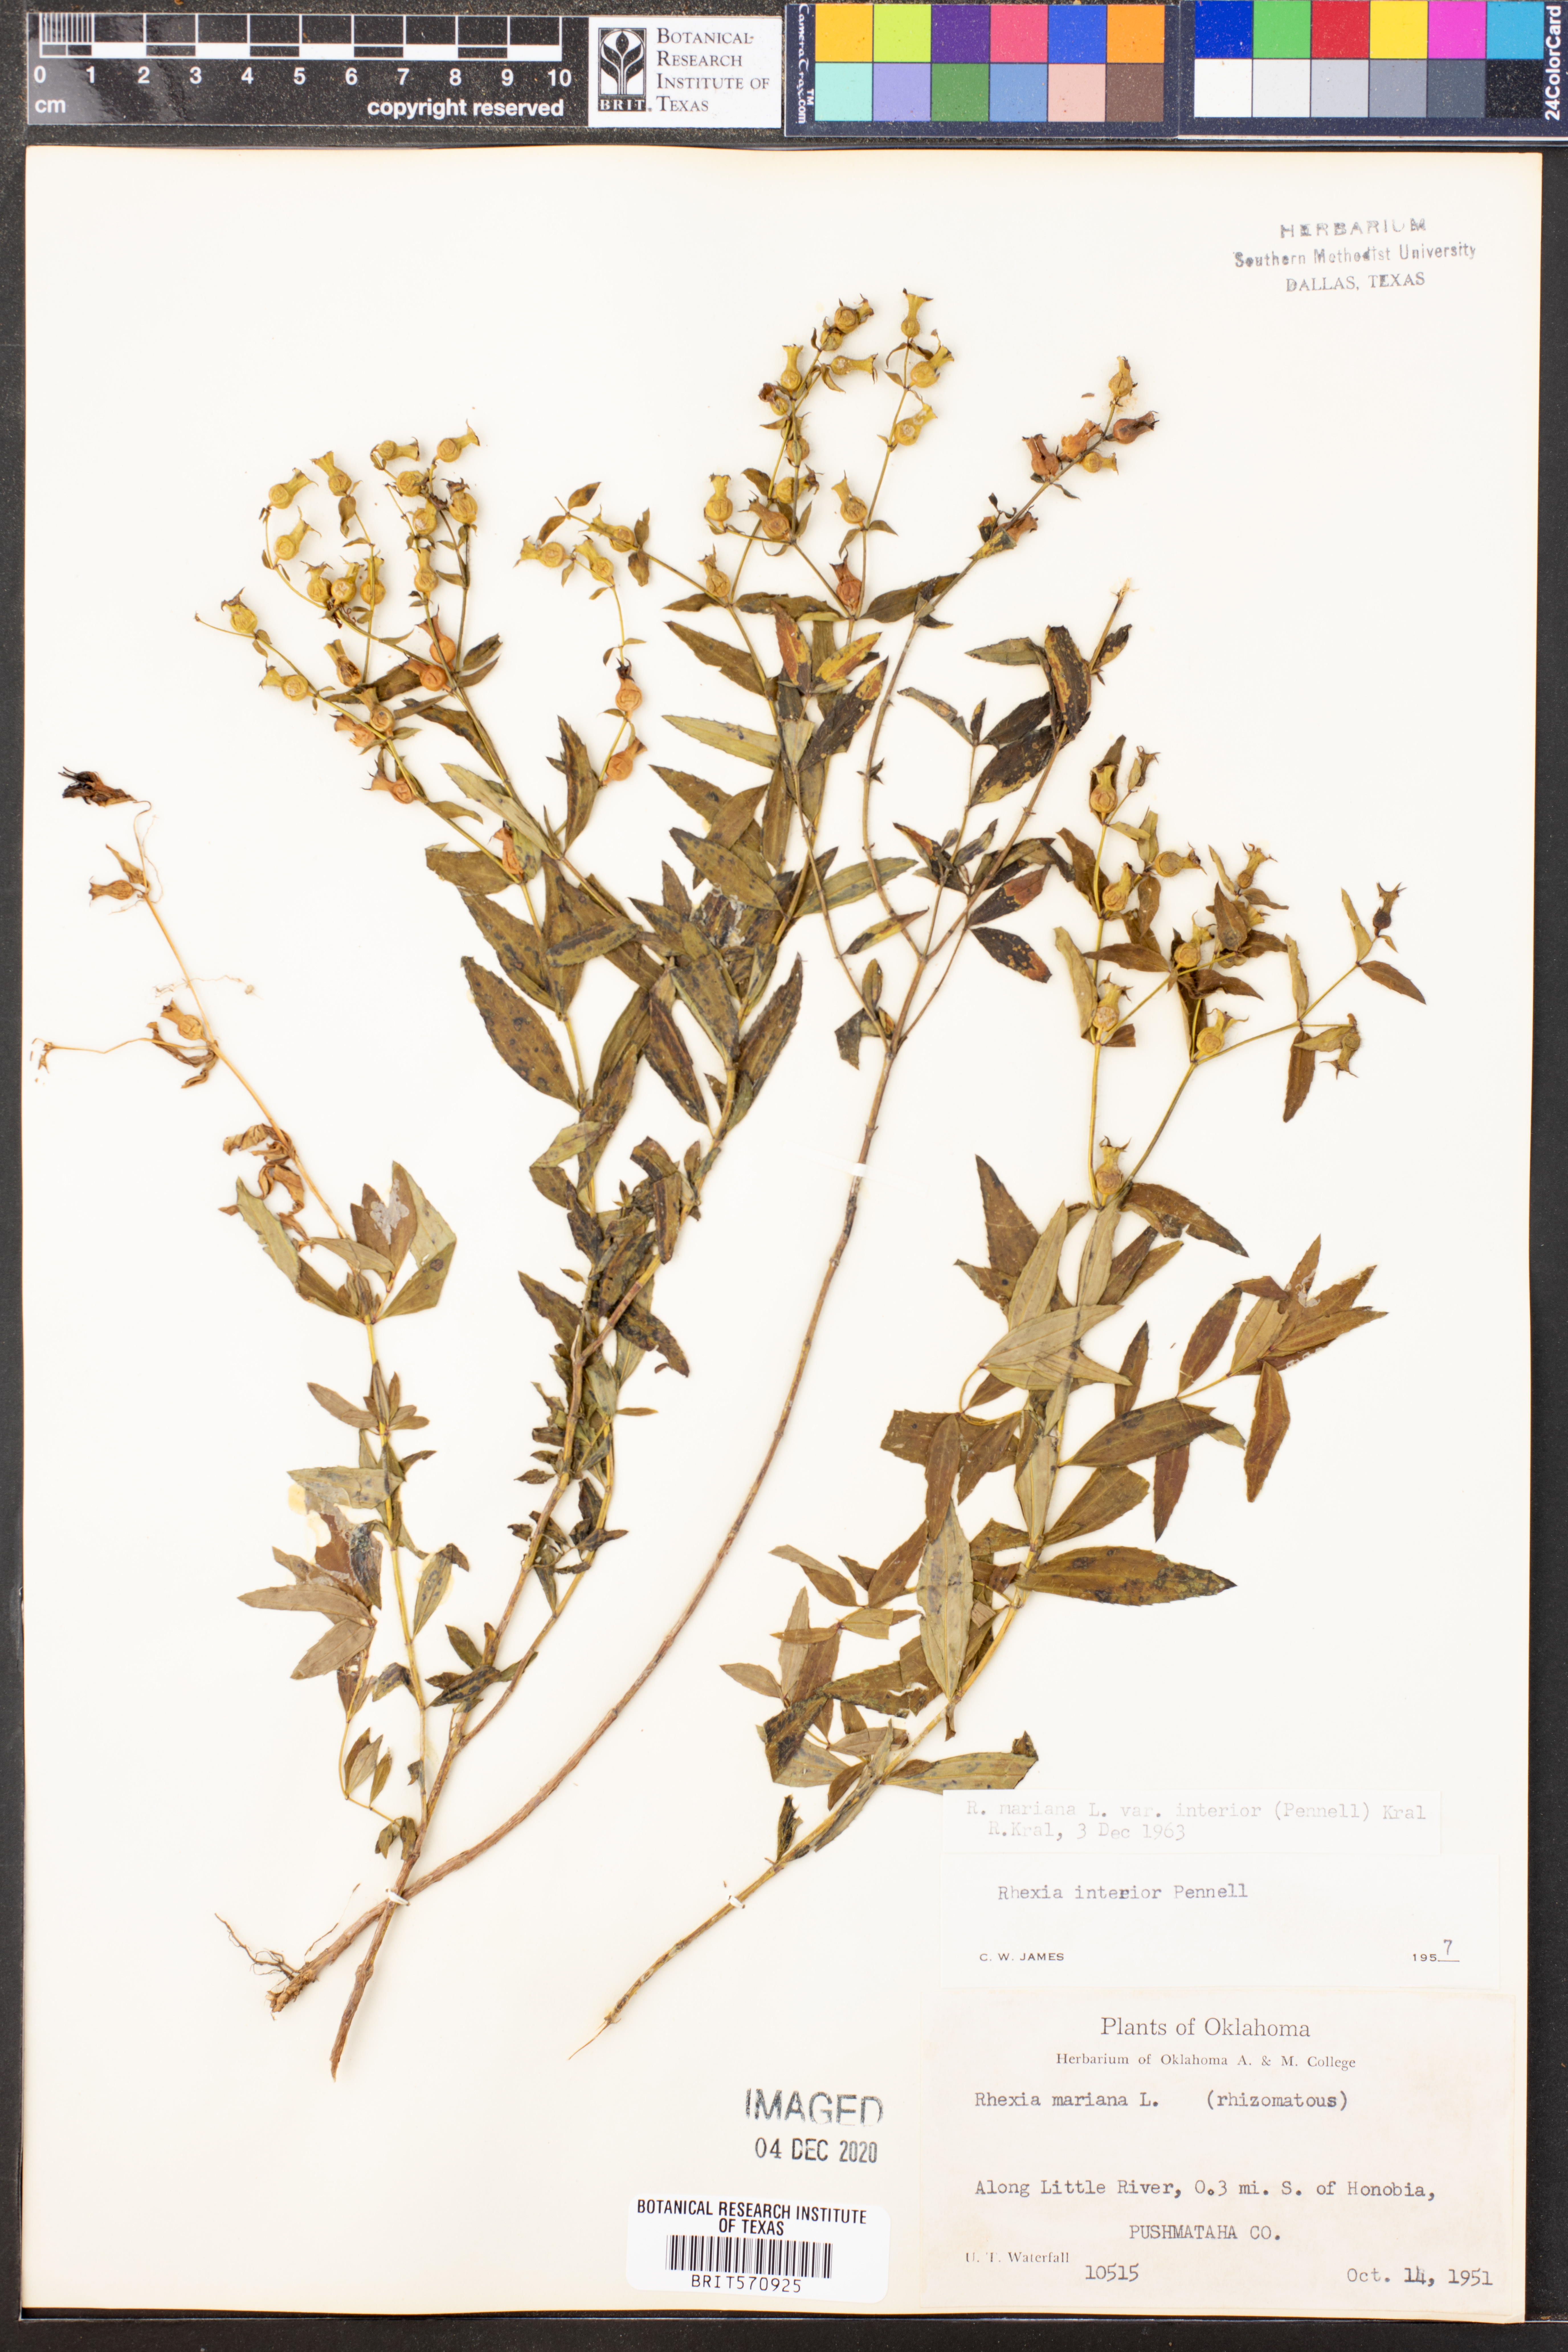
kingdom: Plantae
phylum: Tracheophyta
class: Magnoliopsida
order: Myrtales
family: Melastomataceae
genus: Rhexia
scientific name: Rhexia interior
